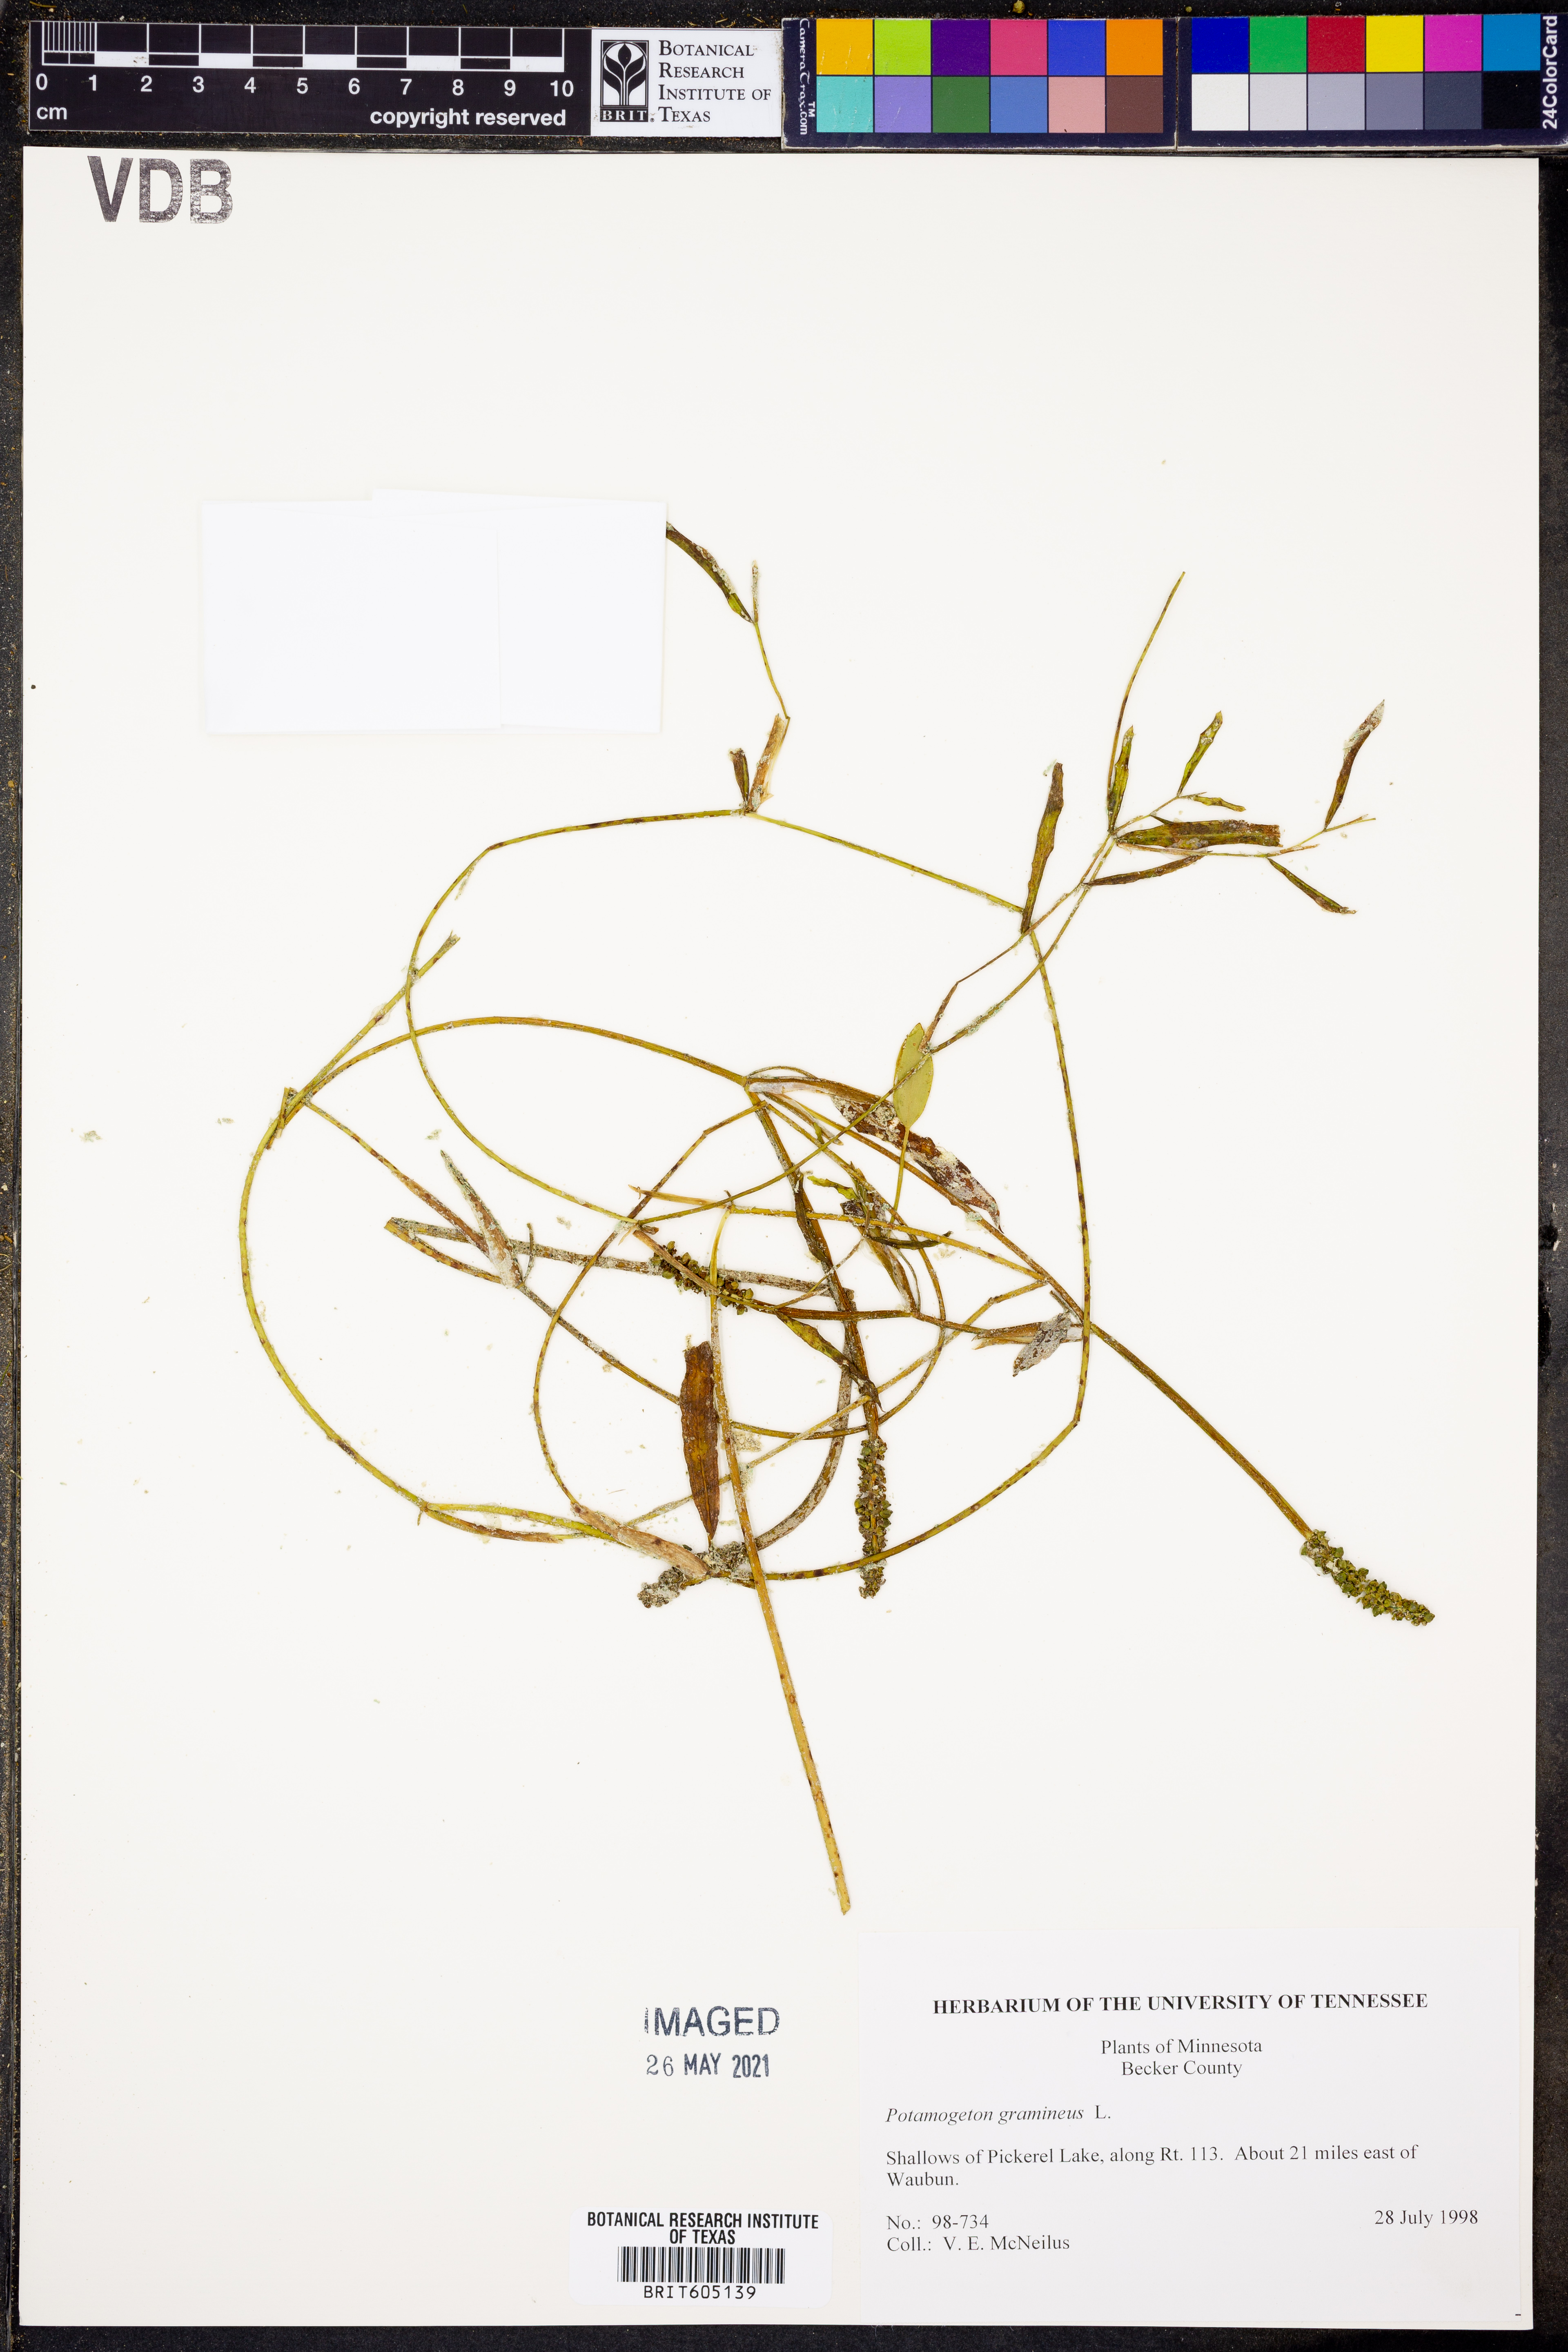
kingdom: Plantae
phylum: Tracheophyta
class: Liliopsida
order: Alismatales
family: Potamogetonaceae
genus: Potamogeton
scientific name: Potamogeton gramineus
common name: Various-leaved pondweed
